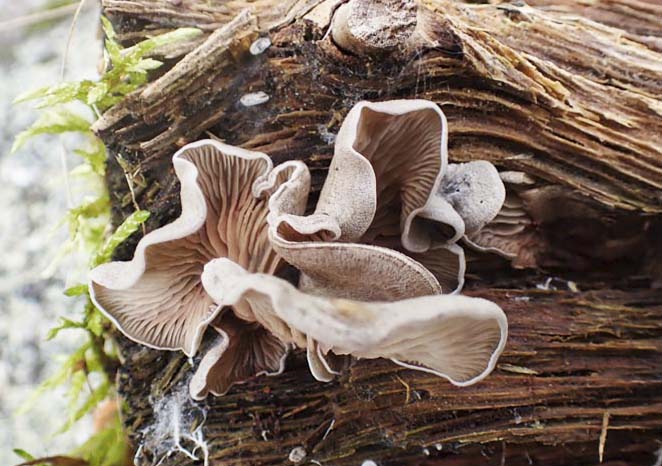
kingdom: Fungi
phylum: Basidiomycota
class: Agaricomycetes
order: Agaricales
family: Entolomataceae
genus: Entoloma
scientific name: Entoloma
